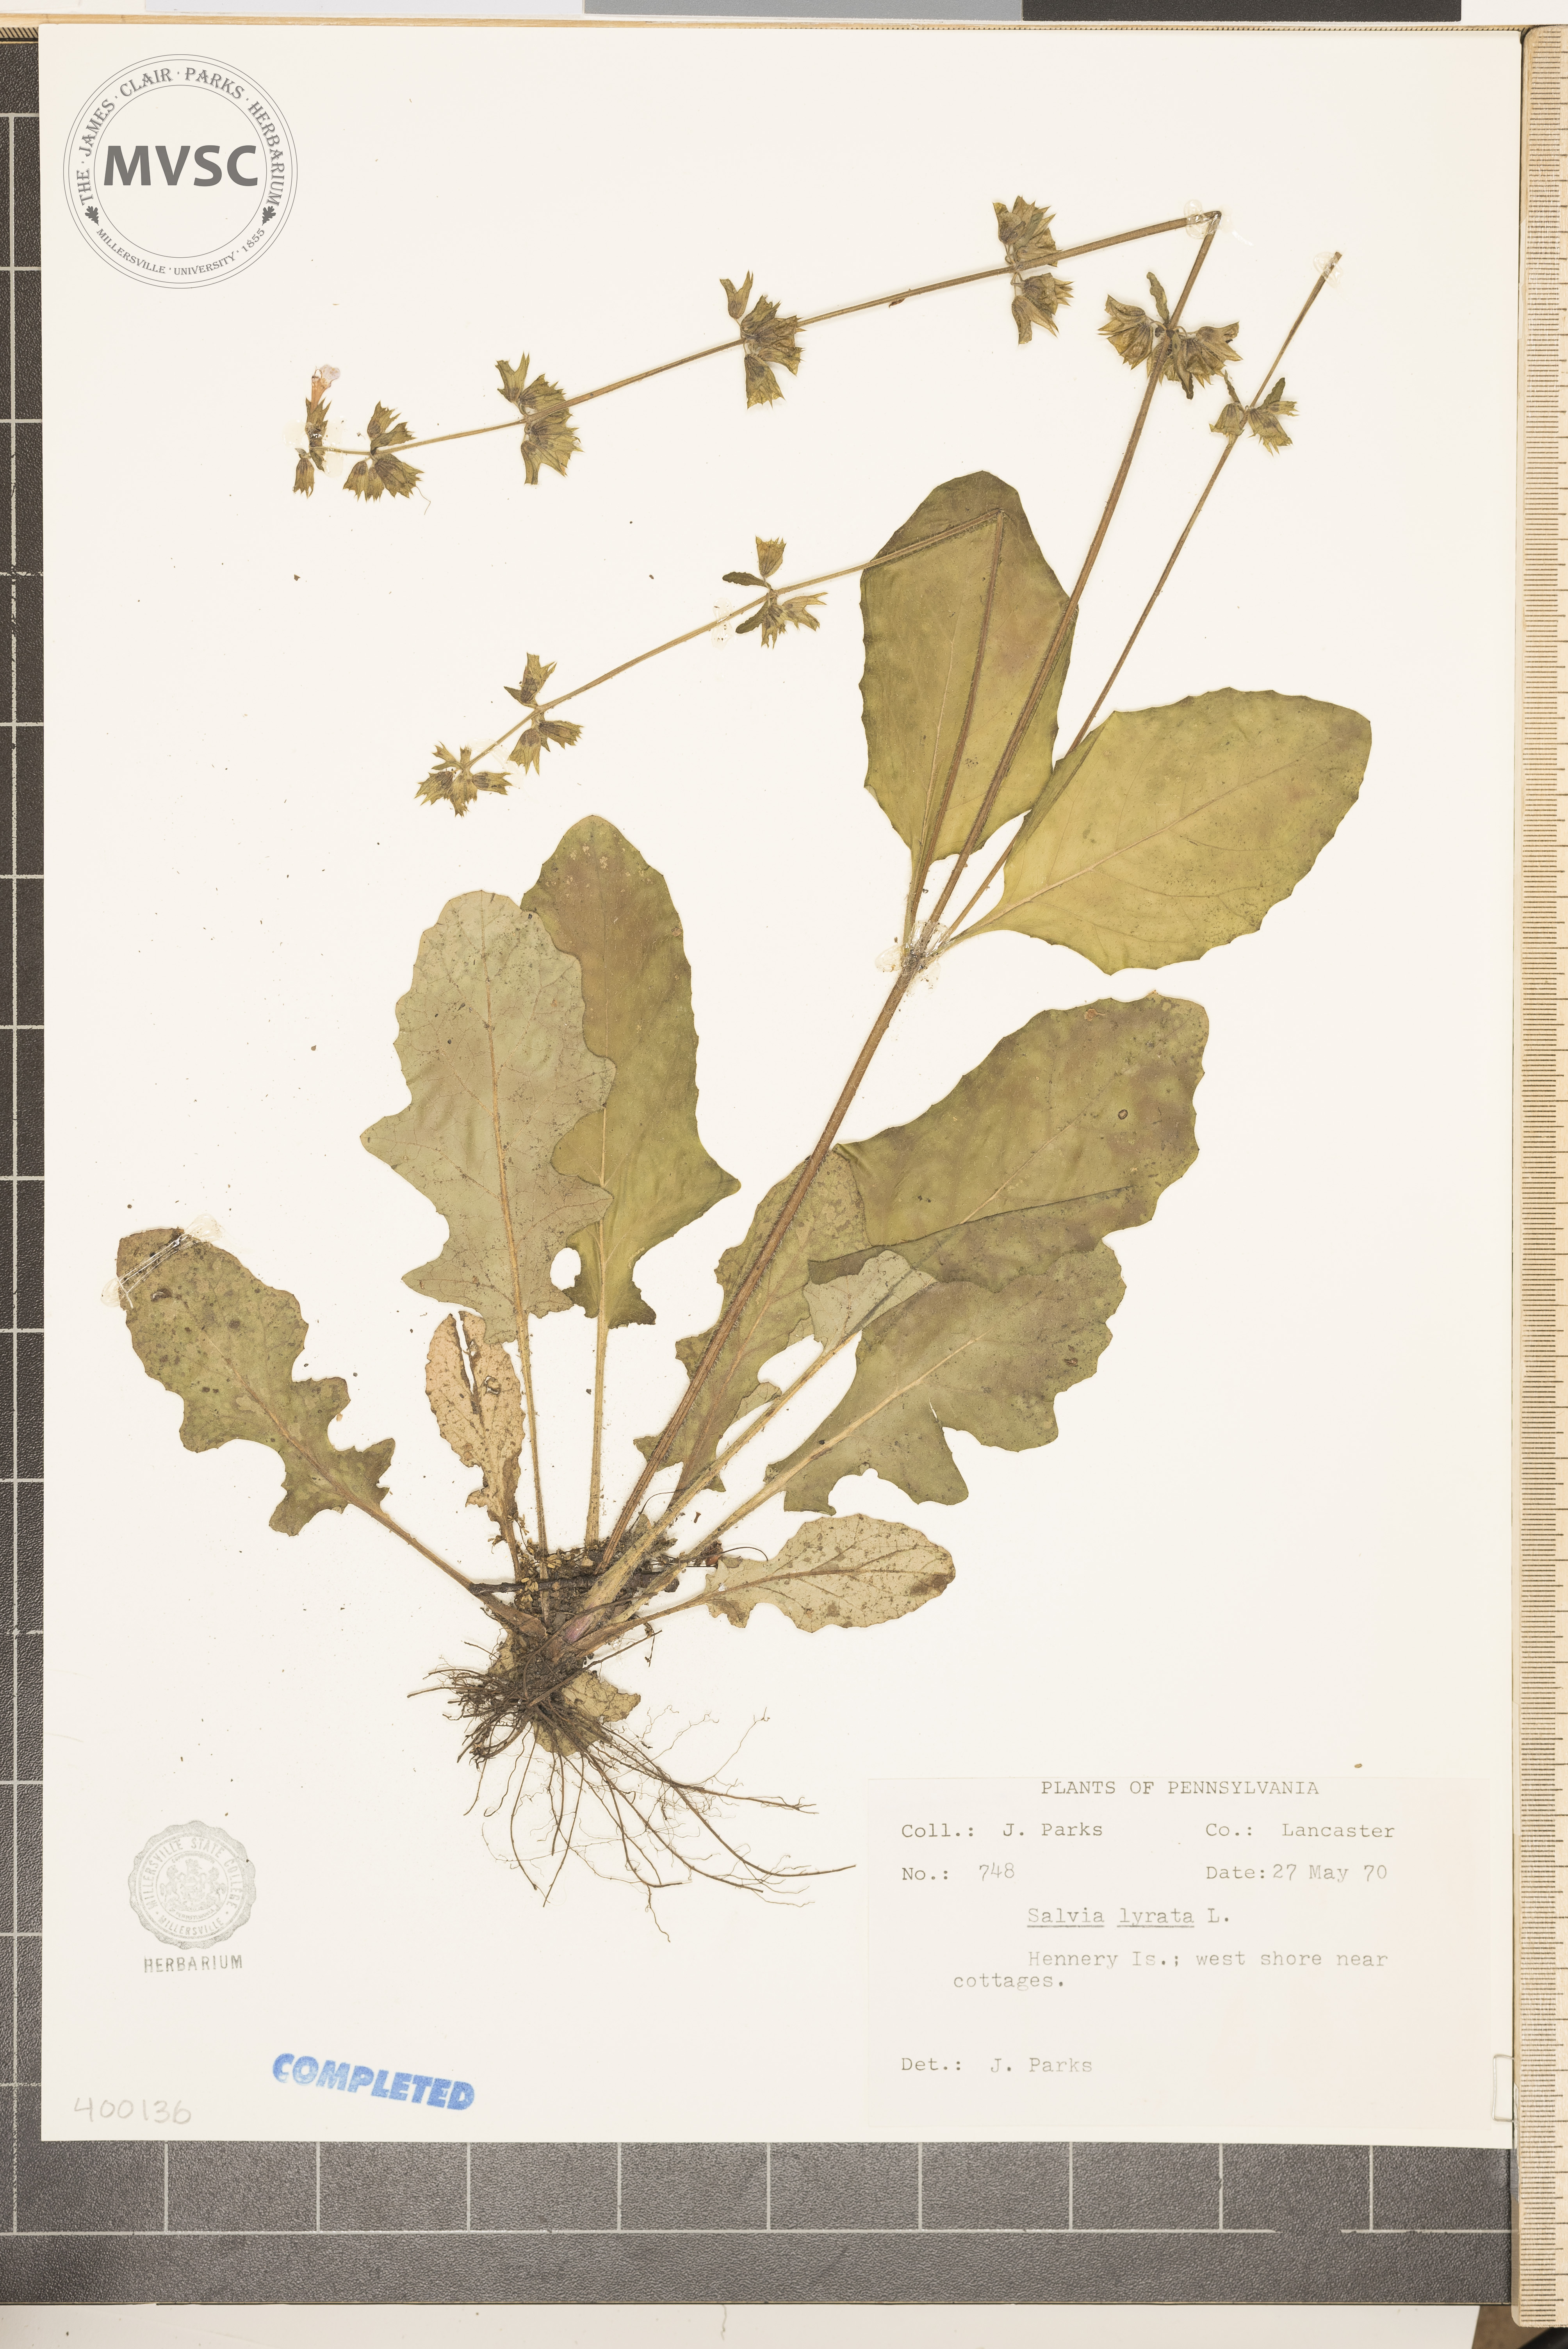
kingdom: Plantae
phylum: Tracheophyta
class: Magnoliopsida
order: Lamiales
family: Lamiaceae
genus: Salvia
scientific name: Salvia lyrata
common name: salvia
